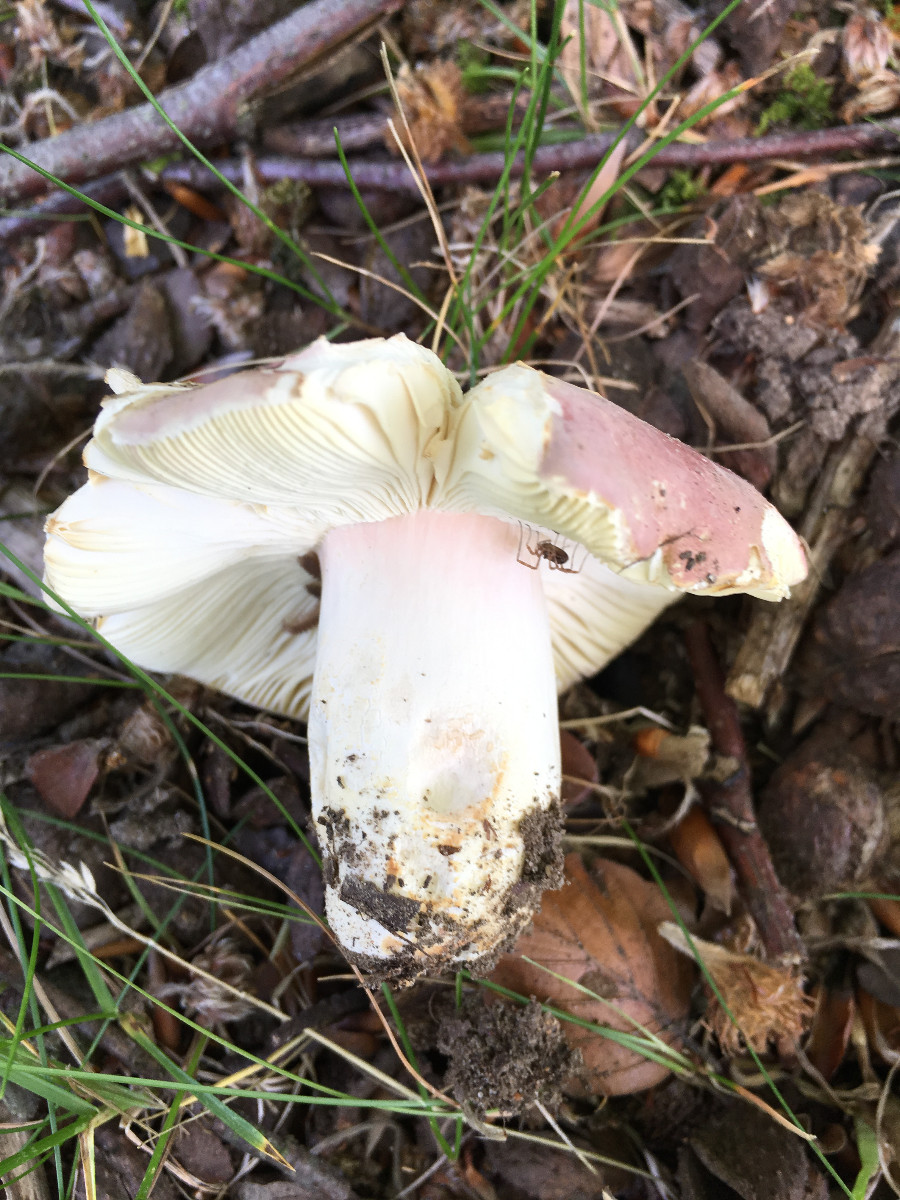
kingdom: Fungi
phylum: Basidiomycota
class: Agaricomycetes
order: Russulales
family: Russulaceae
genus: Russula
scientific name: Russula olivacea
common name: stor skørhat
